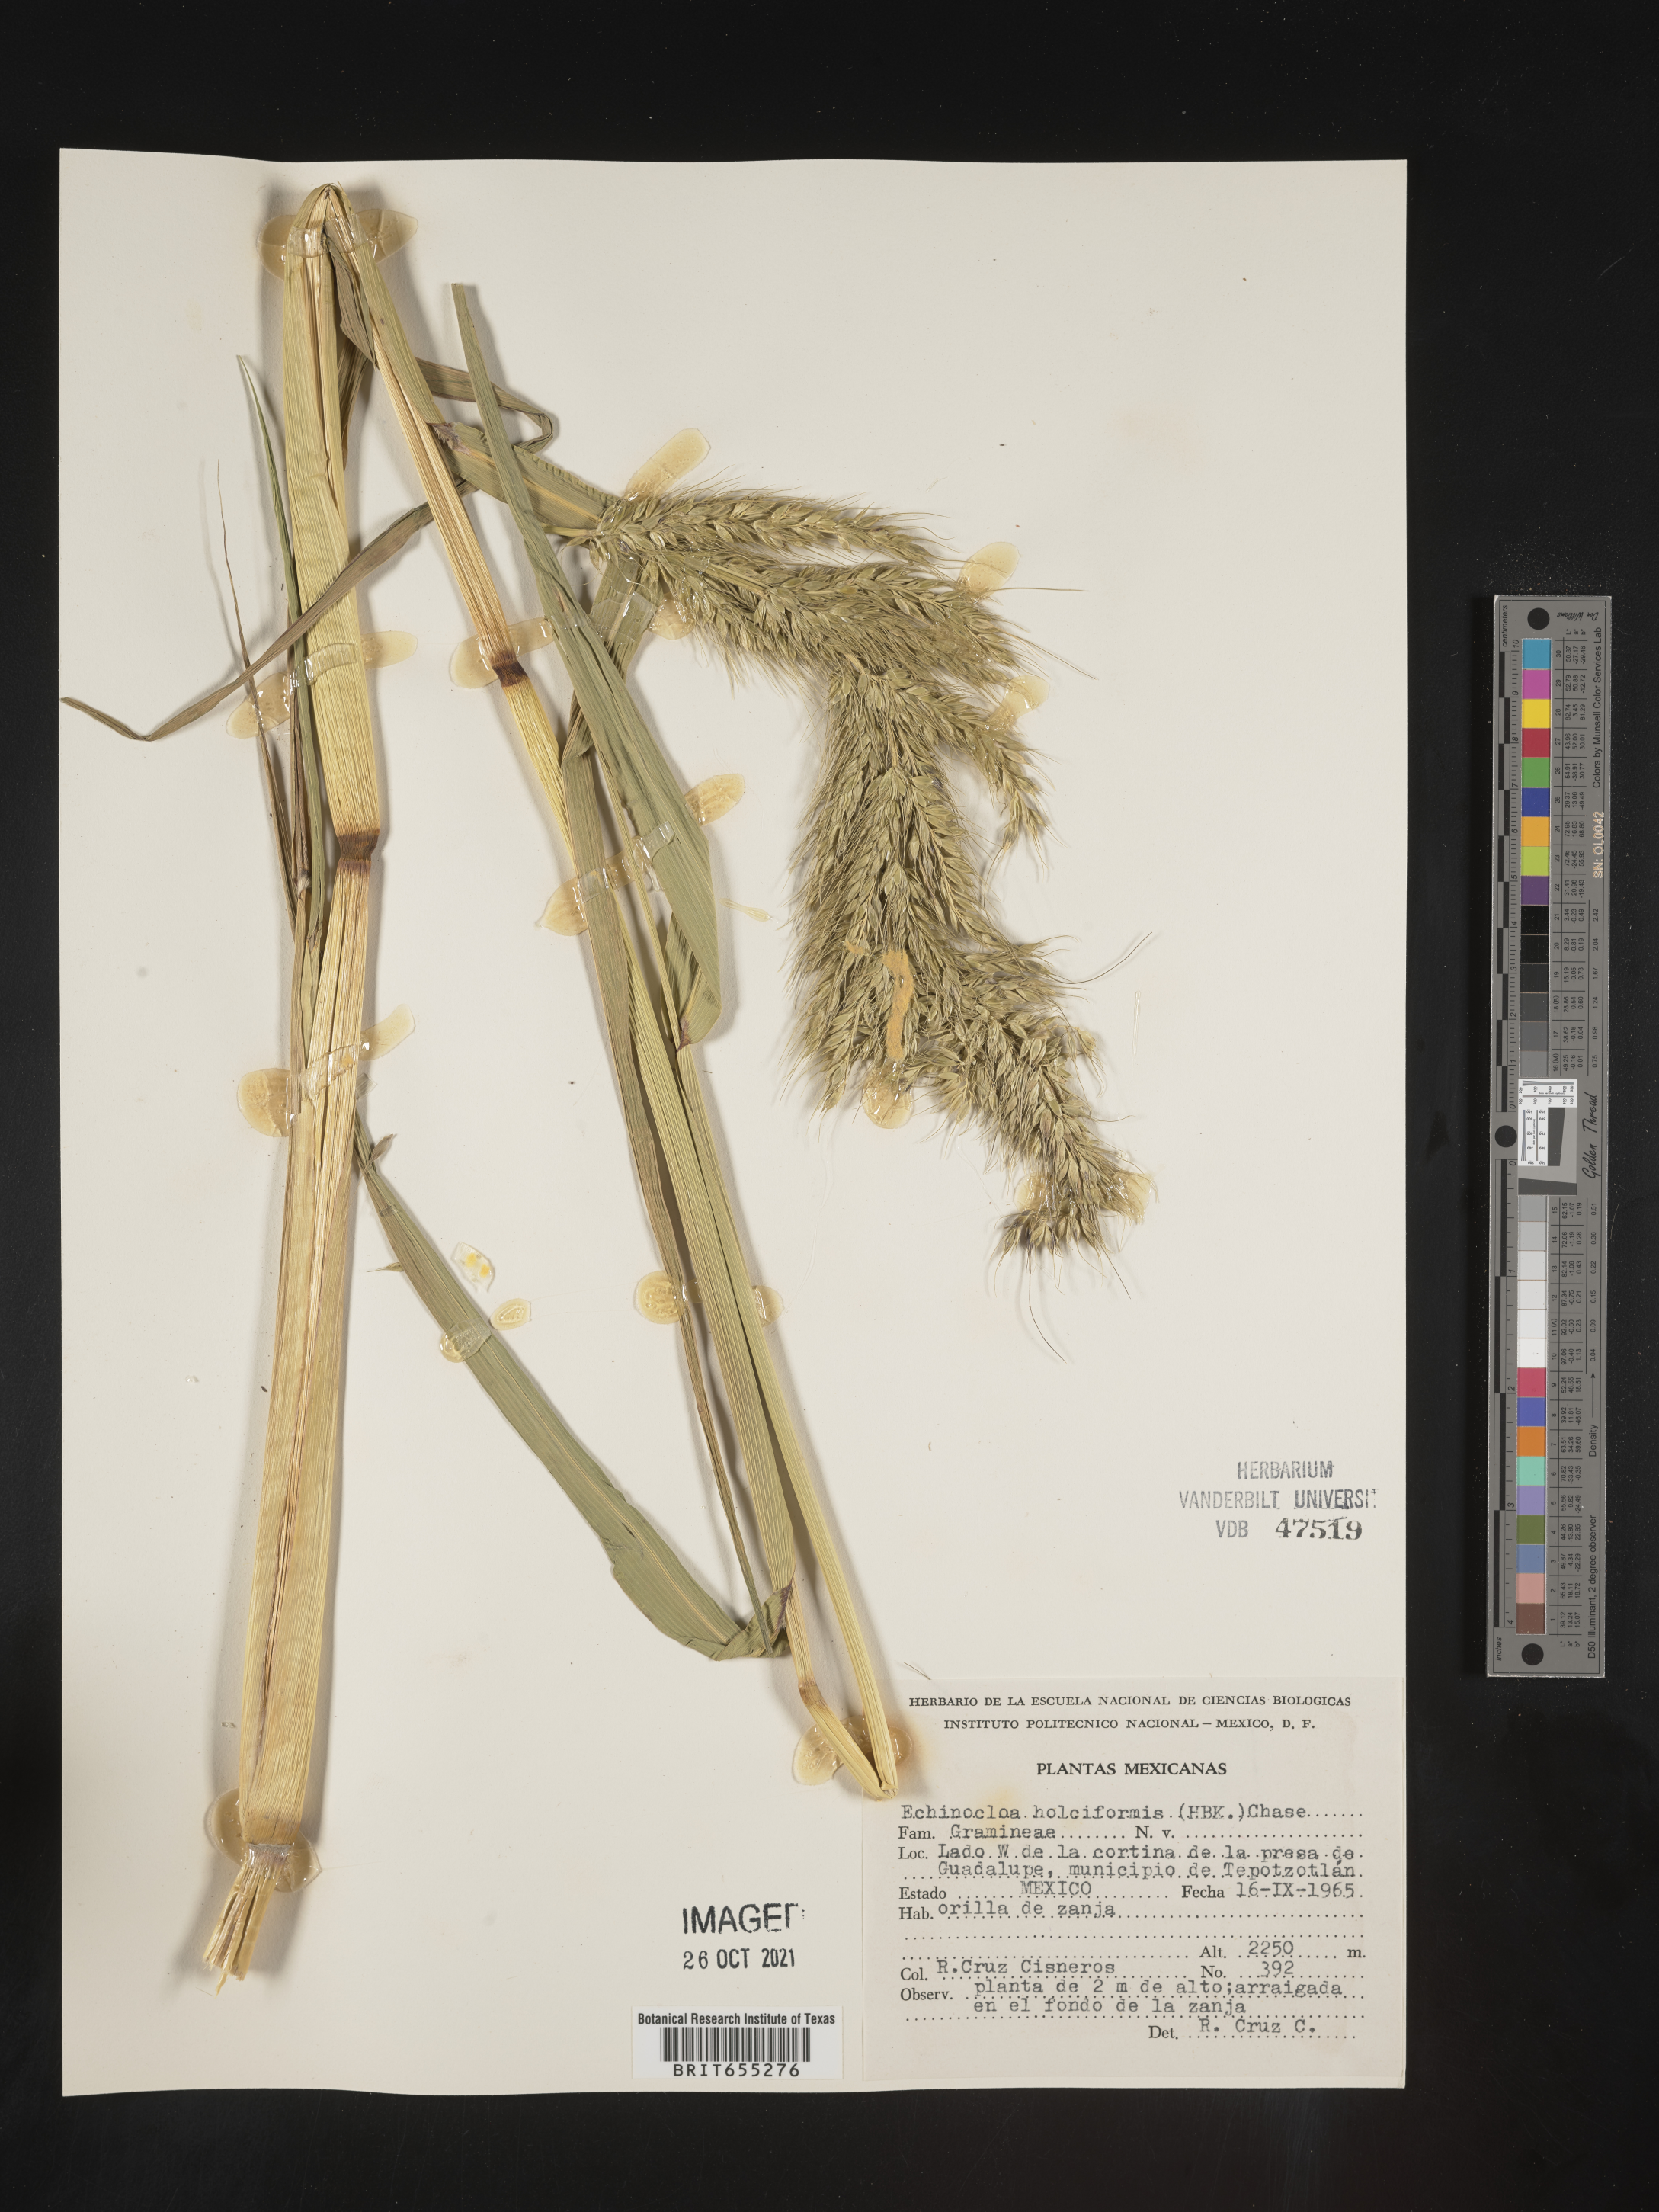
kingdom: Plantae
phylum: Tracheophyta
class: Liliopsida
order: Poales
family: Poaceae
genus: Echinochloa
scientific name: Echinochloa
